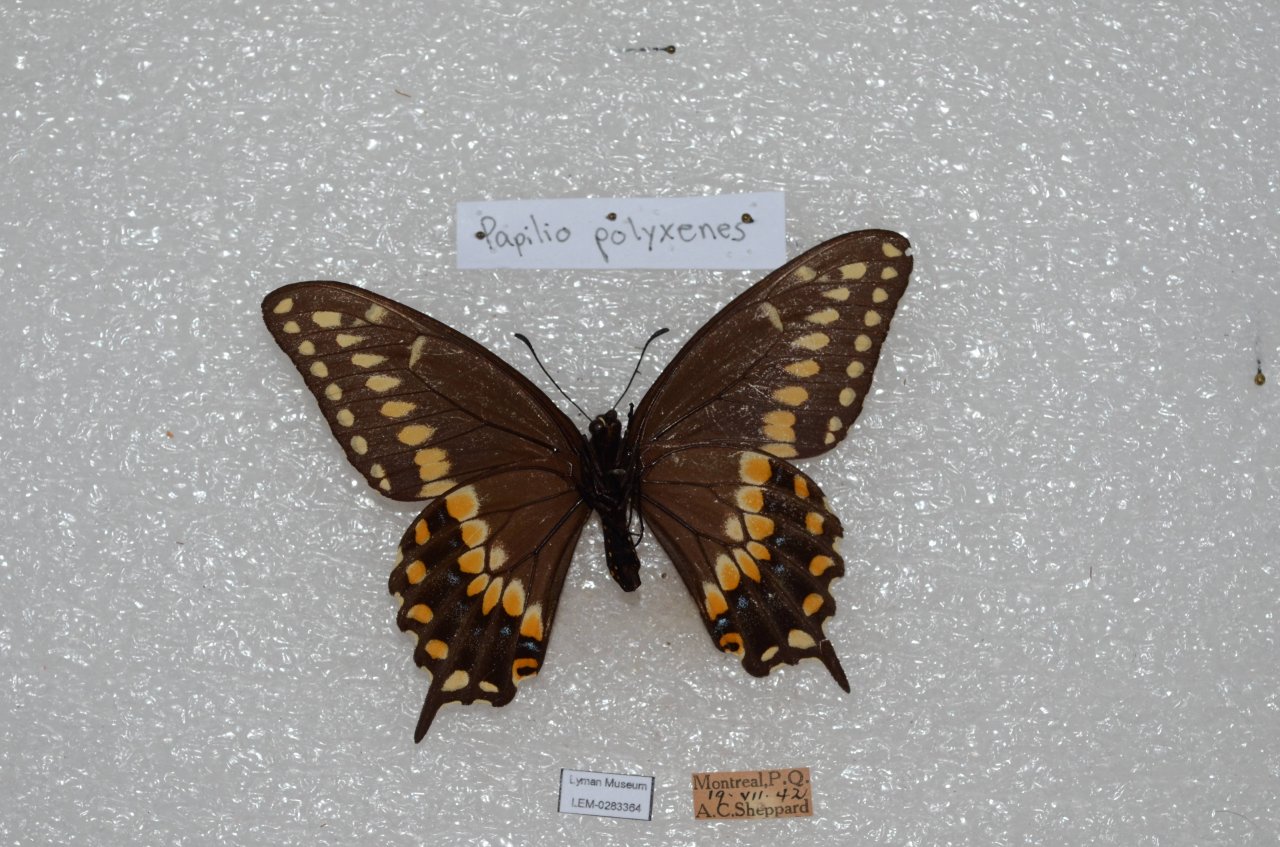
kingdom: Animalia
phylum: Arthropoda
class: Insecta
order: Lepidoptera
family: Papilionidae
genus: Papilio
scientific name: Papilio polyxenes
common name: Black Swallowtail
